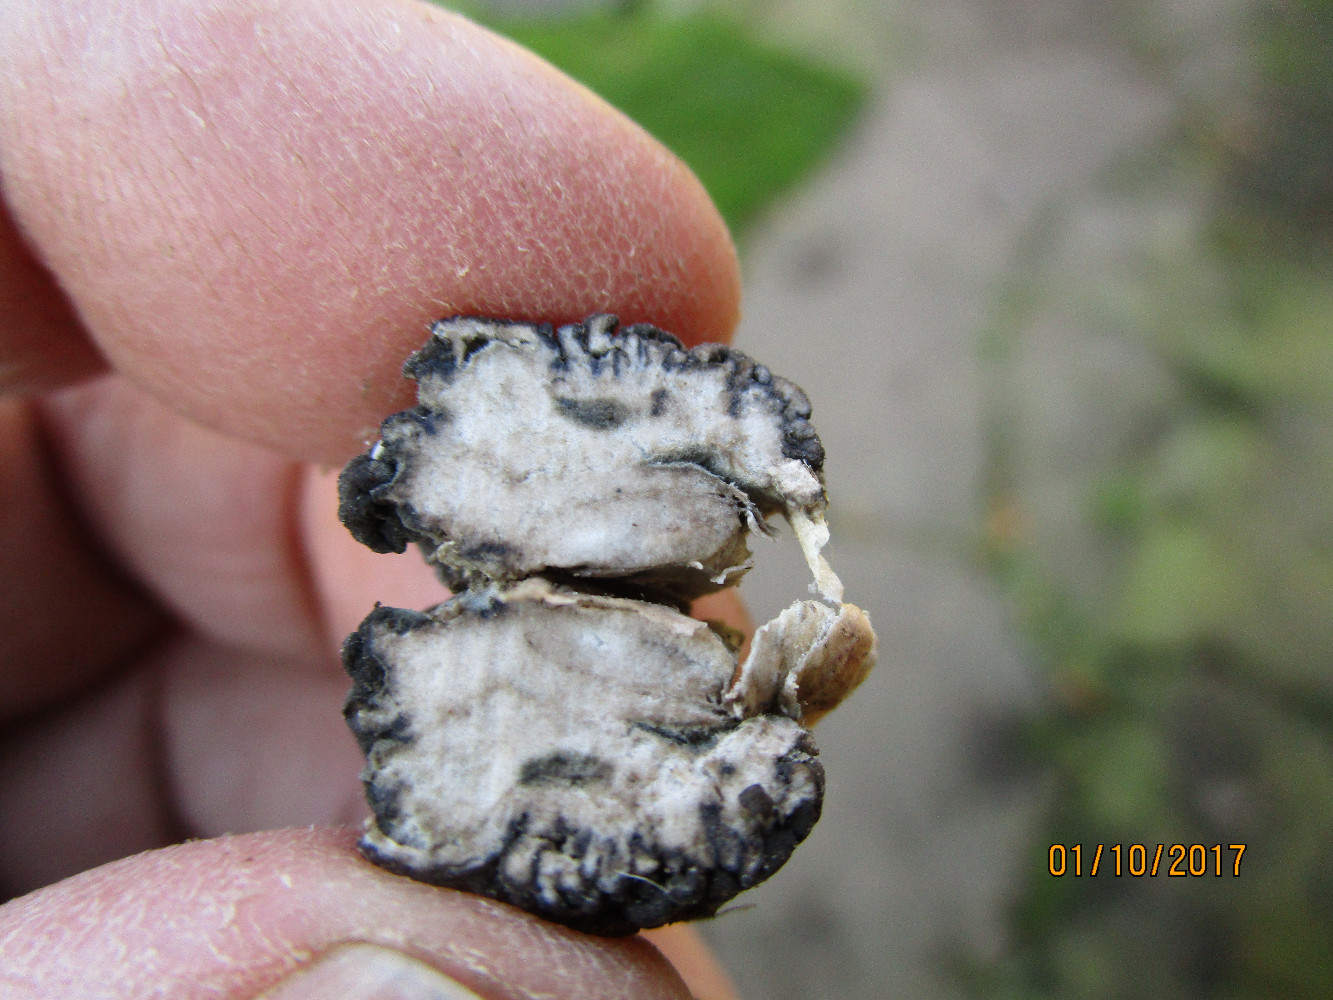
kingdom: Fungi
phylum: Ascomycota
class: Leotiomycetes
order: Helotiales
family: Sclerotiniaceae
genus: Botrytis
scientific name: Botrytis aclada
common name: Onion neck rot
